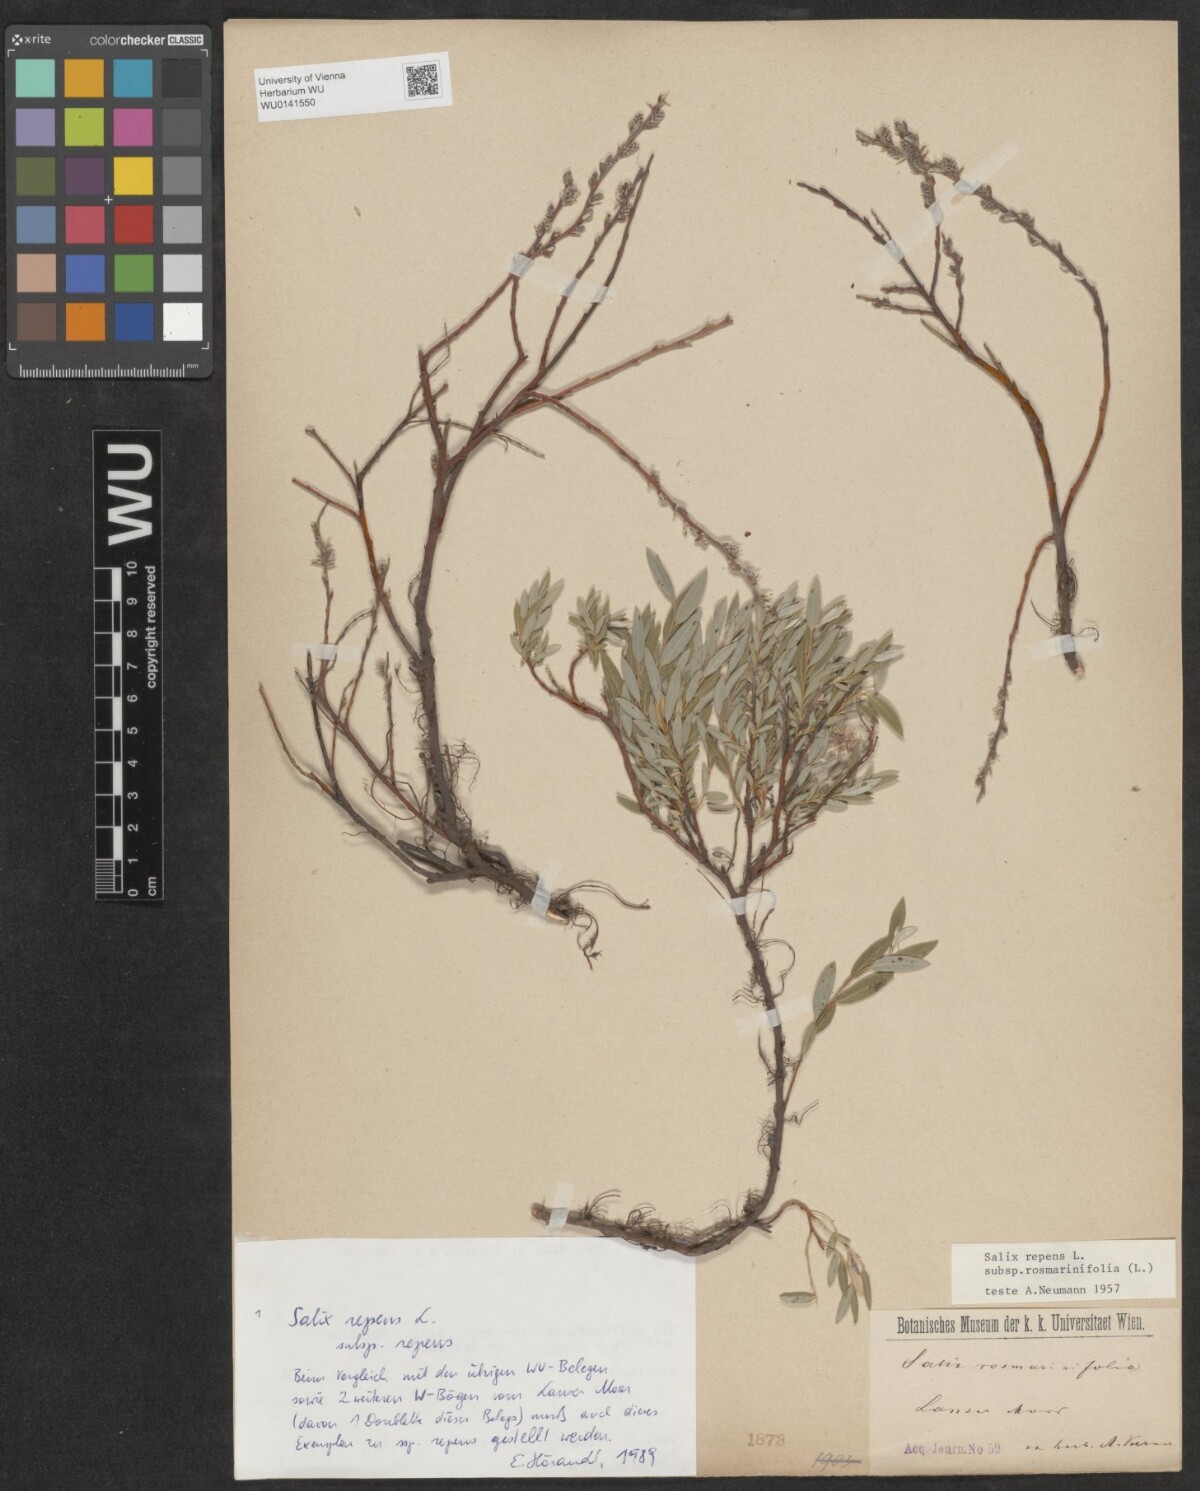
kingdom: Plantae
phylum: Tracheophyta
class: Magnoliopsida
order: Malpighiales
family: Salicaceae
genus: Salix
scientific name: Salix repens
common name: Creeping willow
